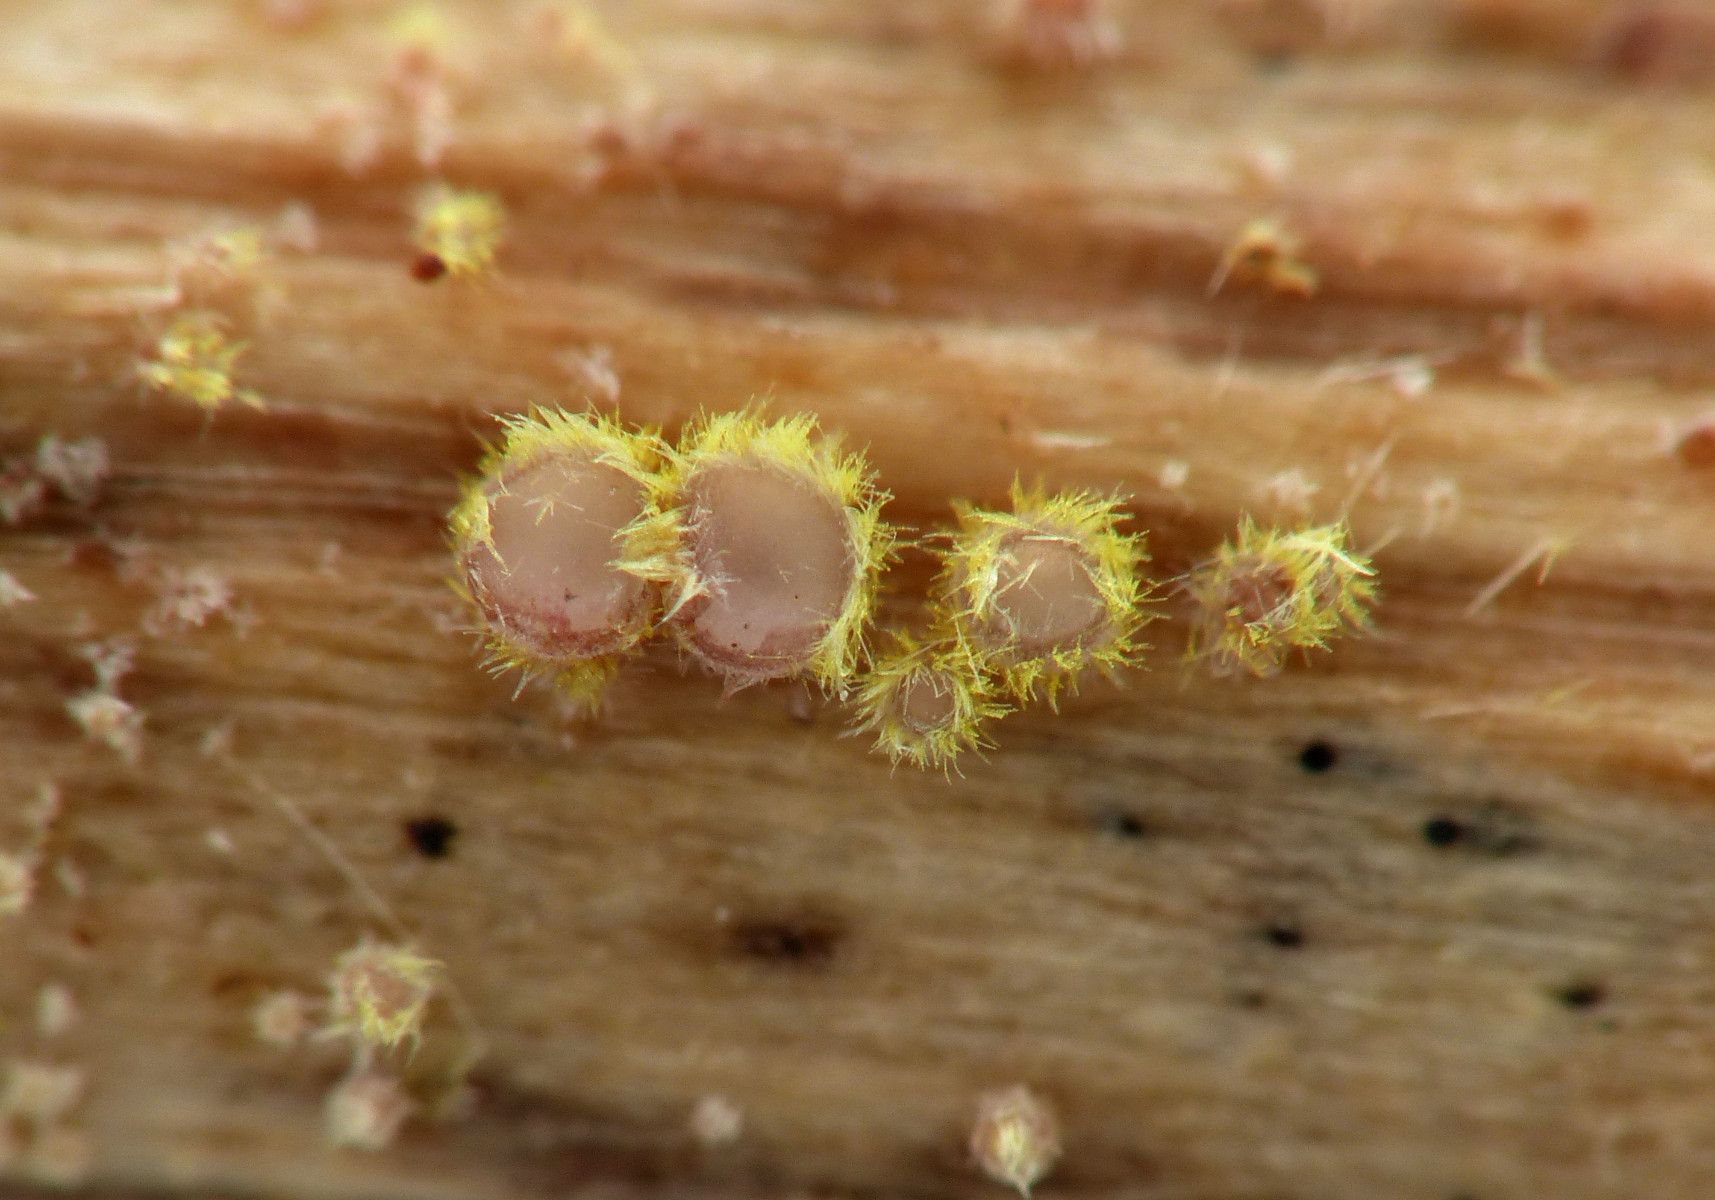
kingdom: Fungi
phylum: Ascomycota
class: Leotiomycetes
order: Helotiales
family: Lachnaceae
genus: Lachnum
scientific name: Lachnum sulphureum
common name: svovlhåret frynseskive
